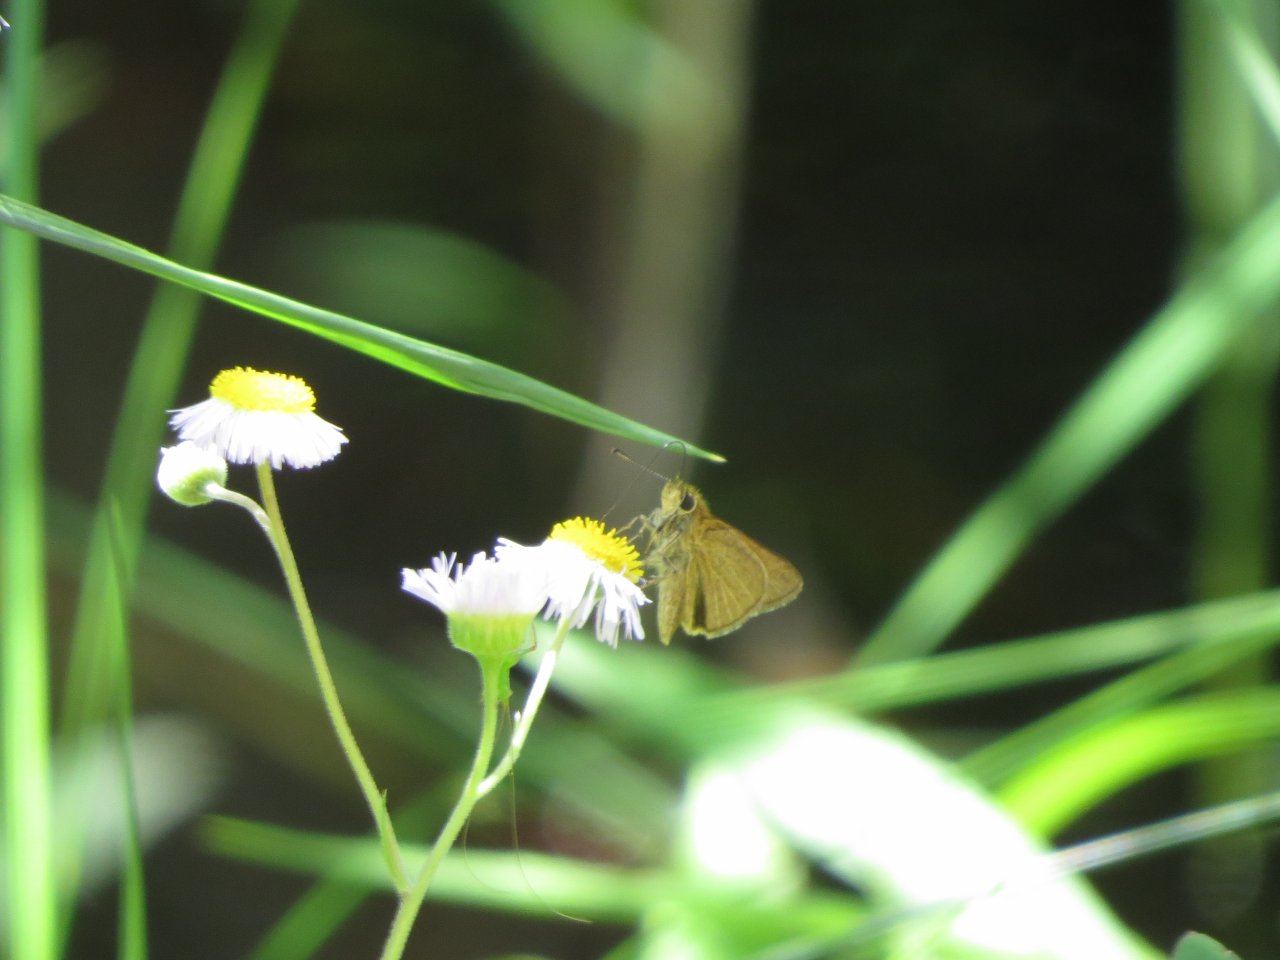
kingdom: Animalia
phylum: Arthropoda
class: Insecta
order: Lepidoptera
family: Hesperiidae
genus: Nastra
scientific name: Nastra lherminier
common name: Swarthy Skipper
